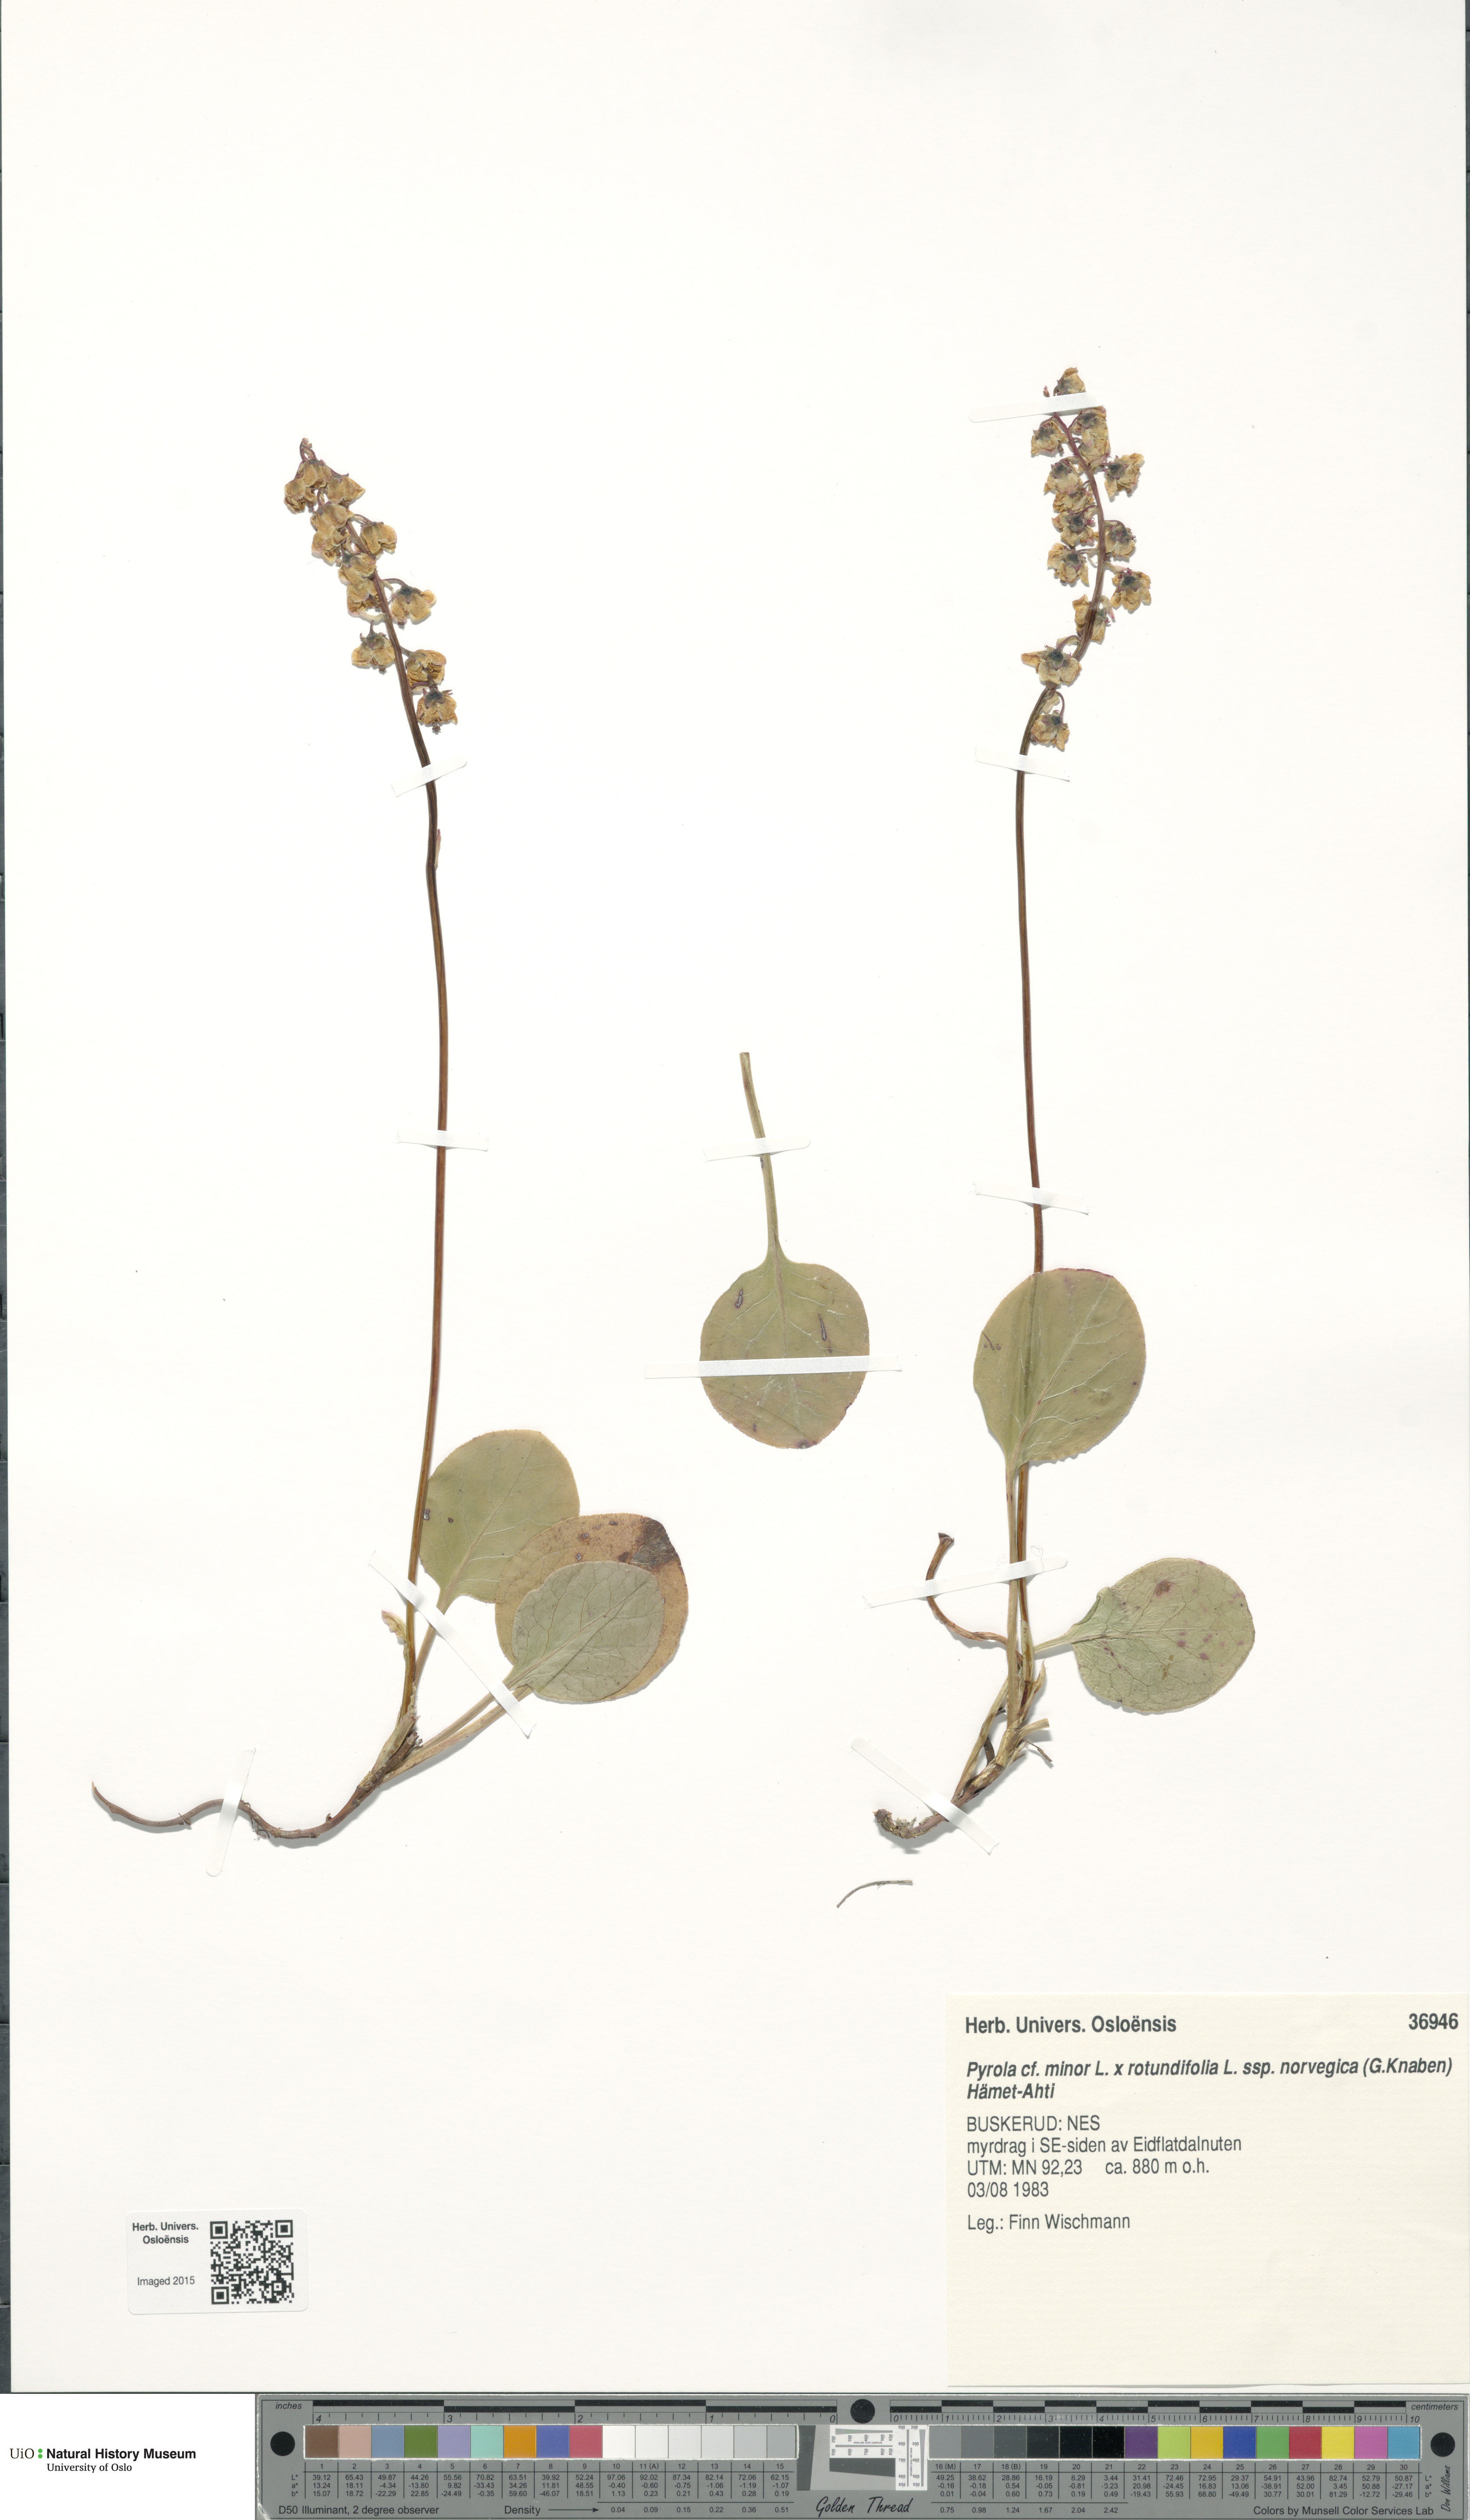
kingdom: Plantae
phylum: Tracheophyta
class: Magnoliopsida
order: Ericales
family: Ericaceae
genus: Pyrola
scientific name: Pyrola
